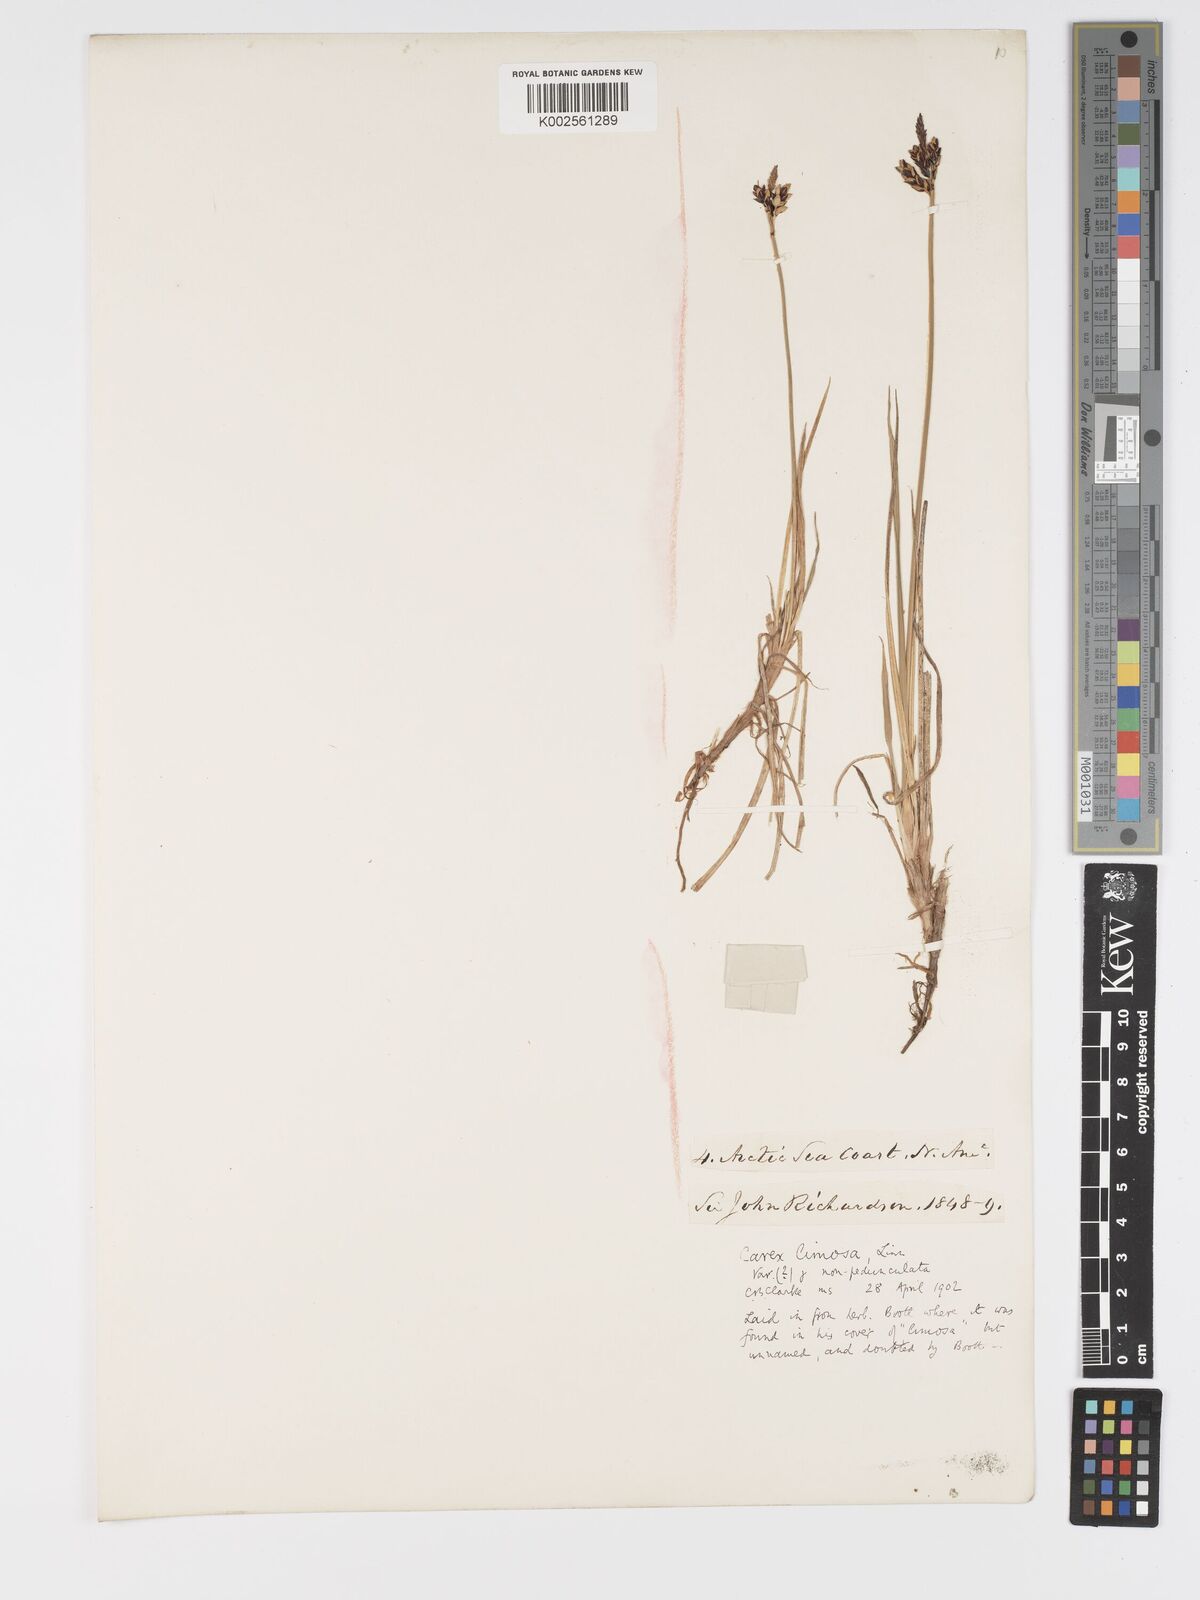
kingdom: Plantae
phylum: Tracheophyta
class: Liliopsida
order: Poales
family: Cyperaceae
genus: Carex
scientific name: Carex limosa
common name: Bog sedge
